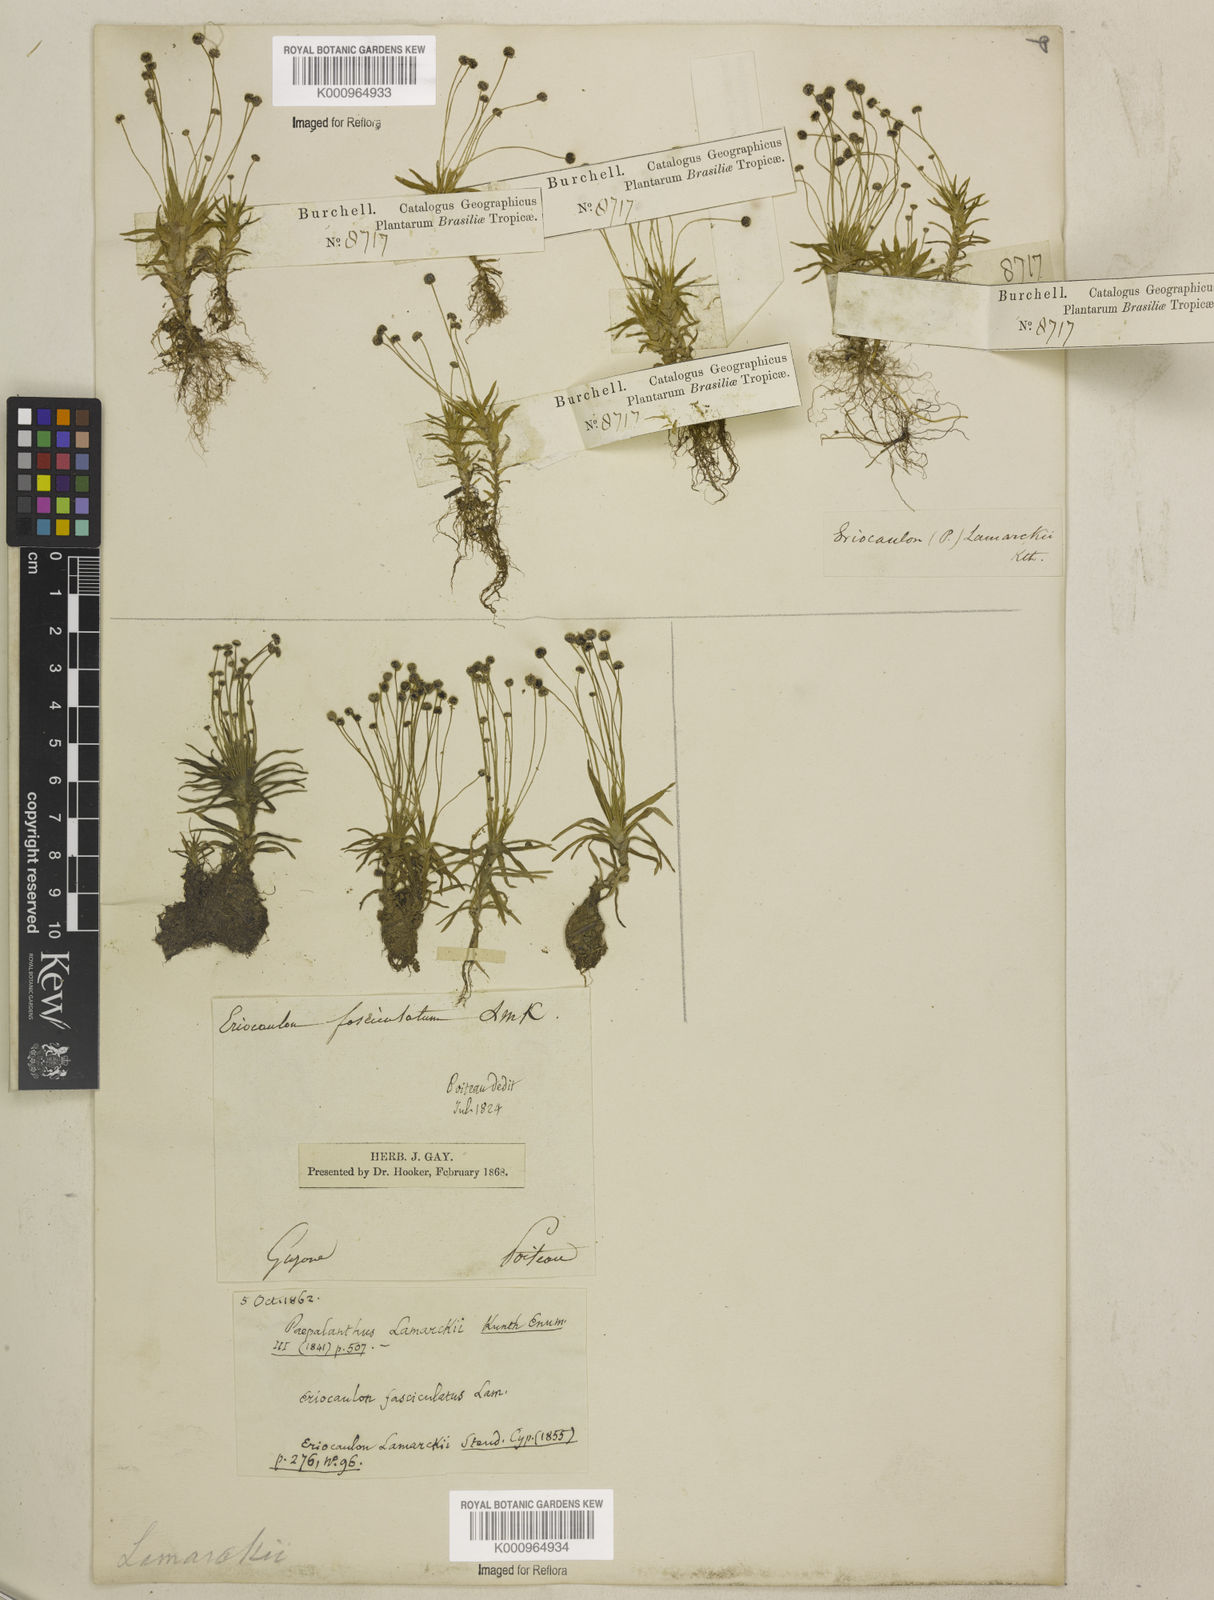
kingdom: Plantae
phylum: Tracheophyta
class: Liliopsida
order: Poales
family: Eriocaulaceae
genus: Paepalanthus
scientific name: Paepalanthus lamarckii
